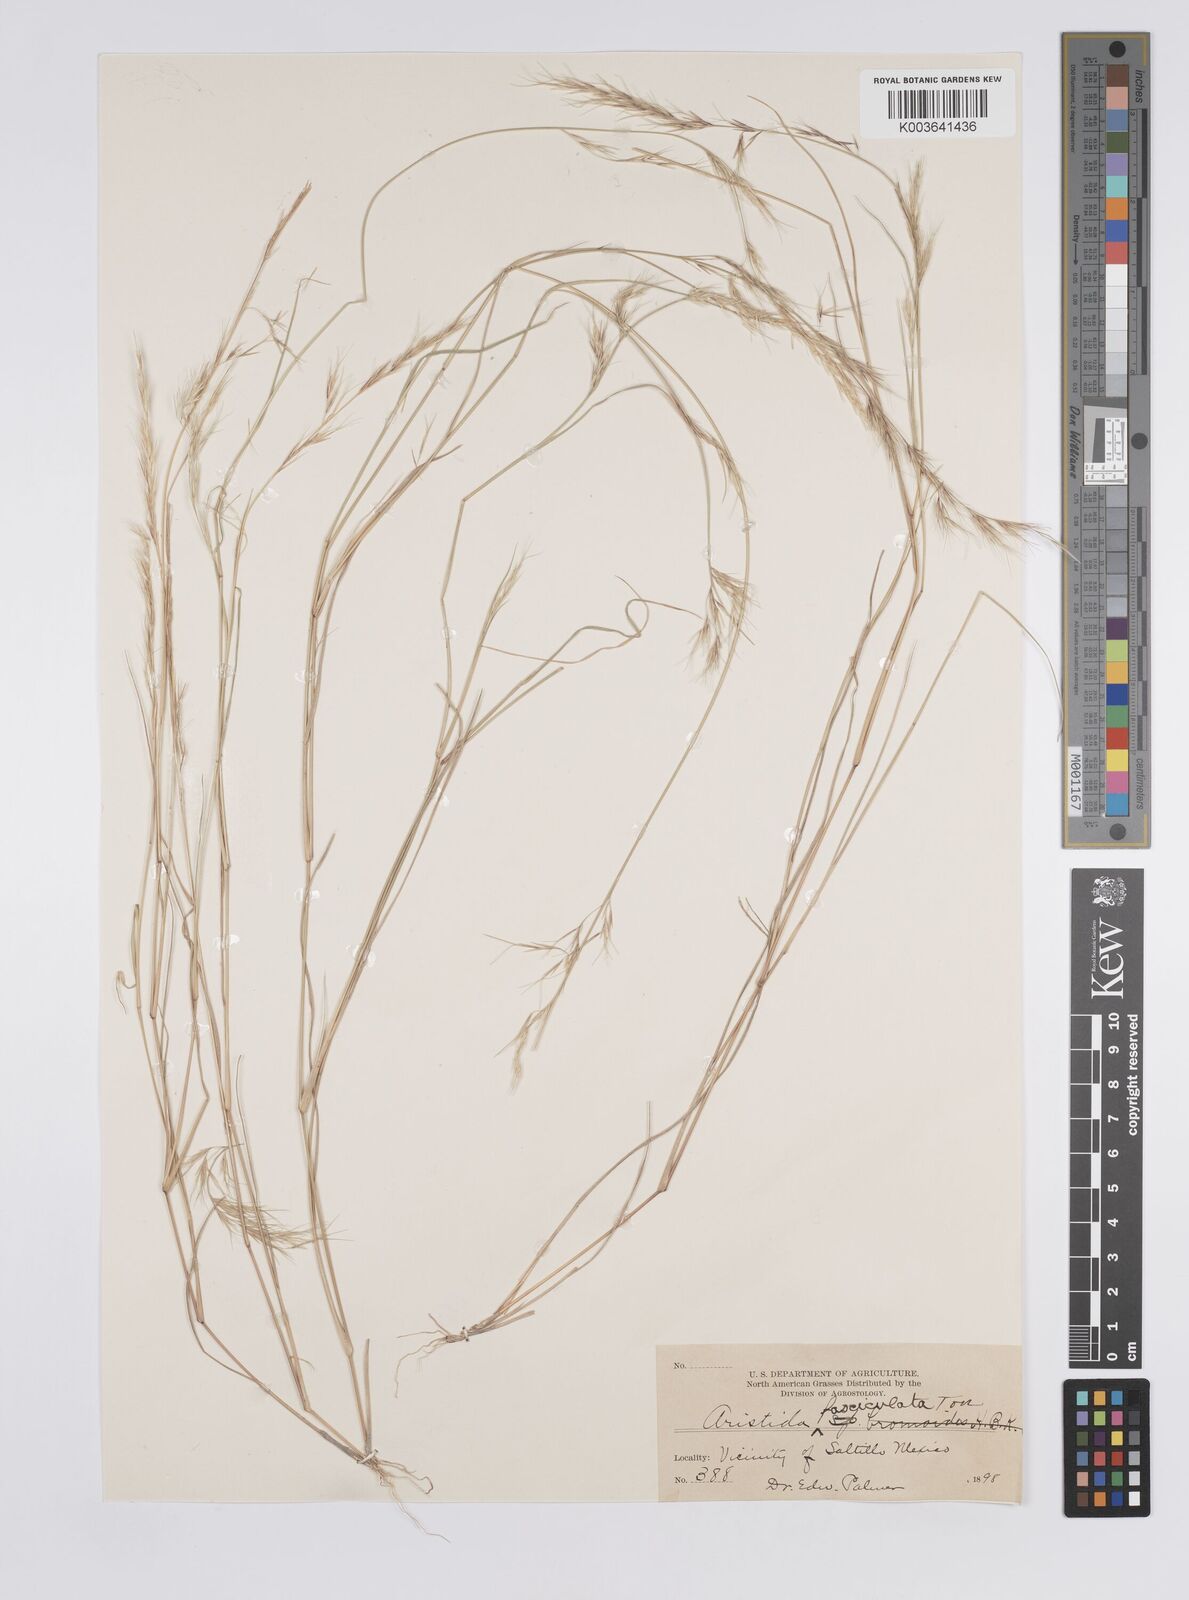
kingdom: Plantae
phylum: Tracheophyta
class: Liliopsida
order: Poales
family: Poaceae
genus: Aristida
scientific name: Aristida adscensionis
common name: Sixweeks threeawn
